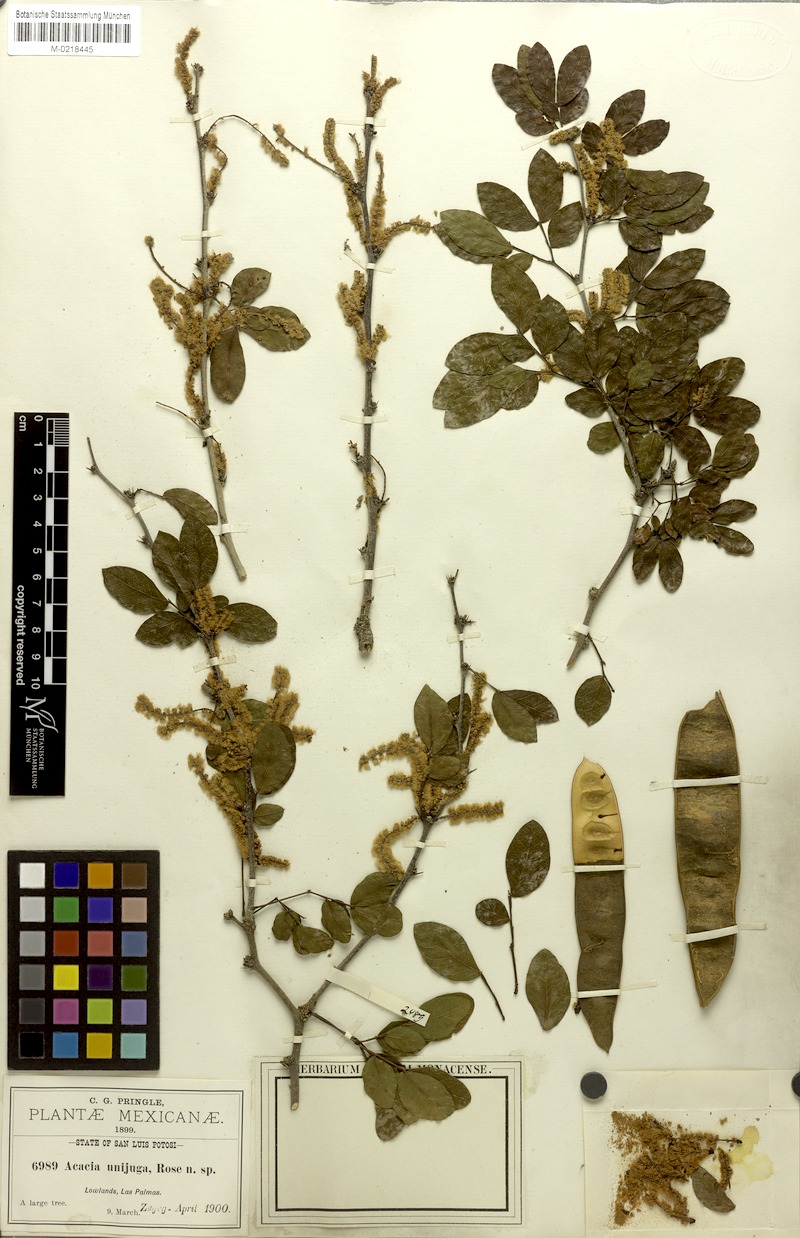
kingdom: Plantae
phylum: Tracheophyta
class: Magnoliopsida
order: Fabales
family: Fabaceae
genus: Vachellia
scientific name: Vachellia pringlei
